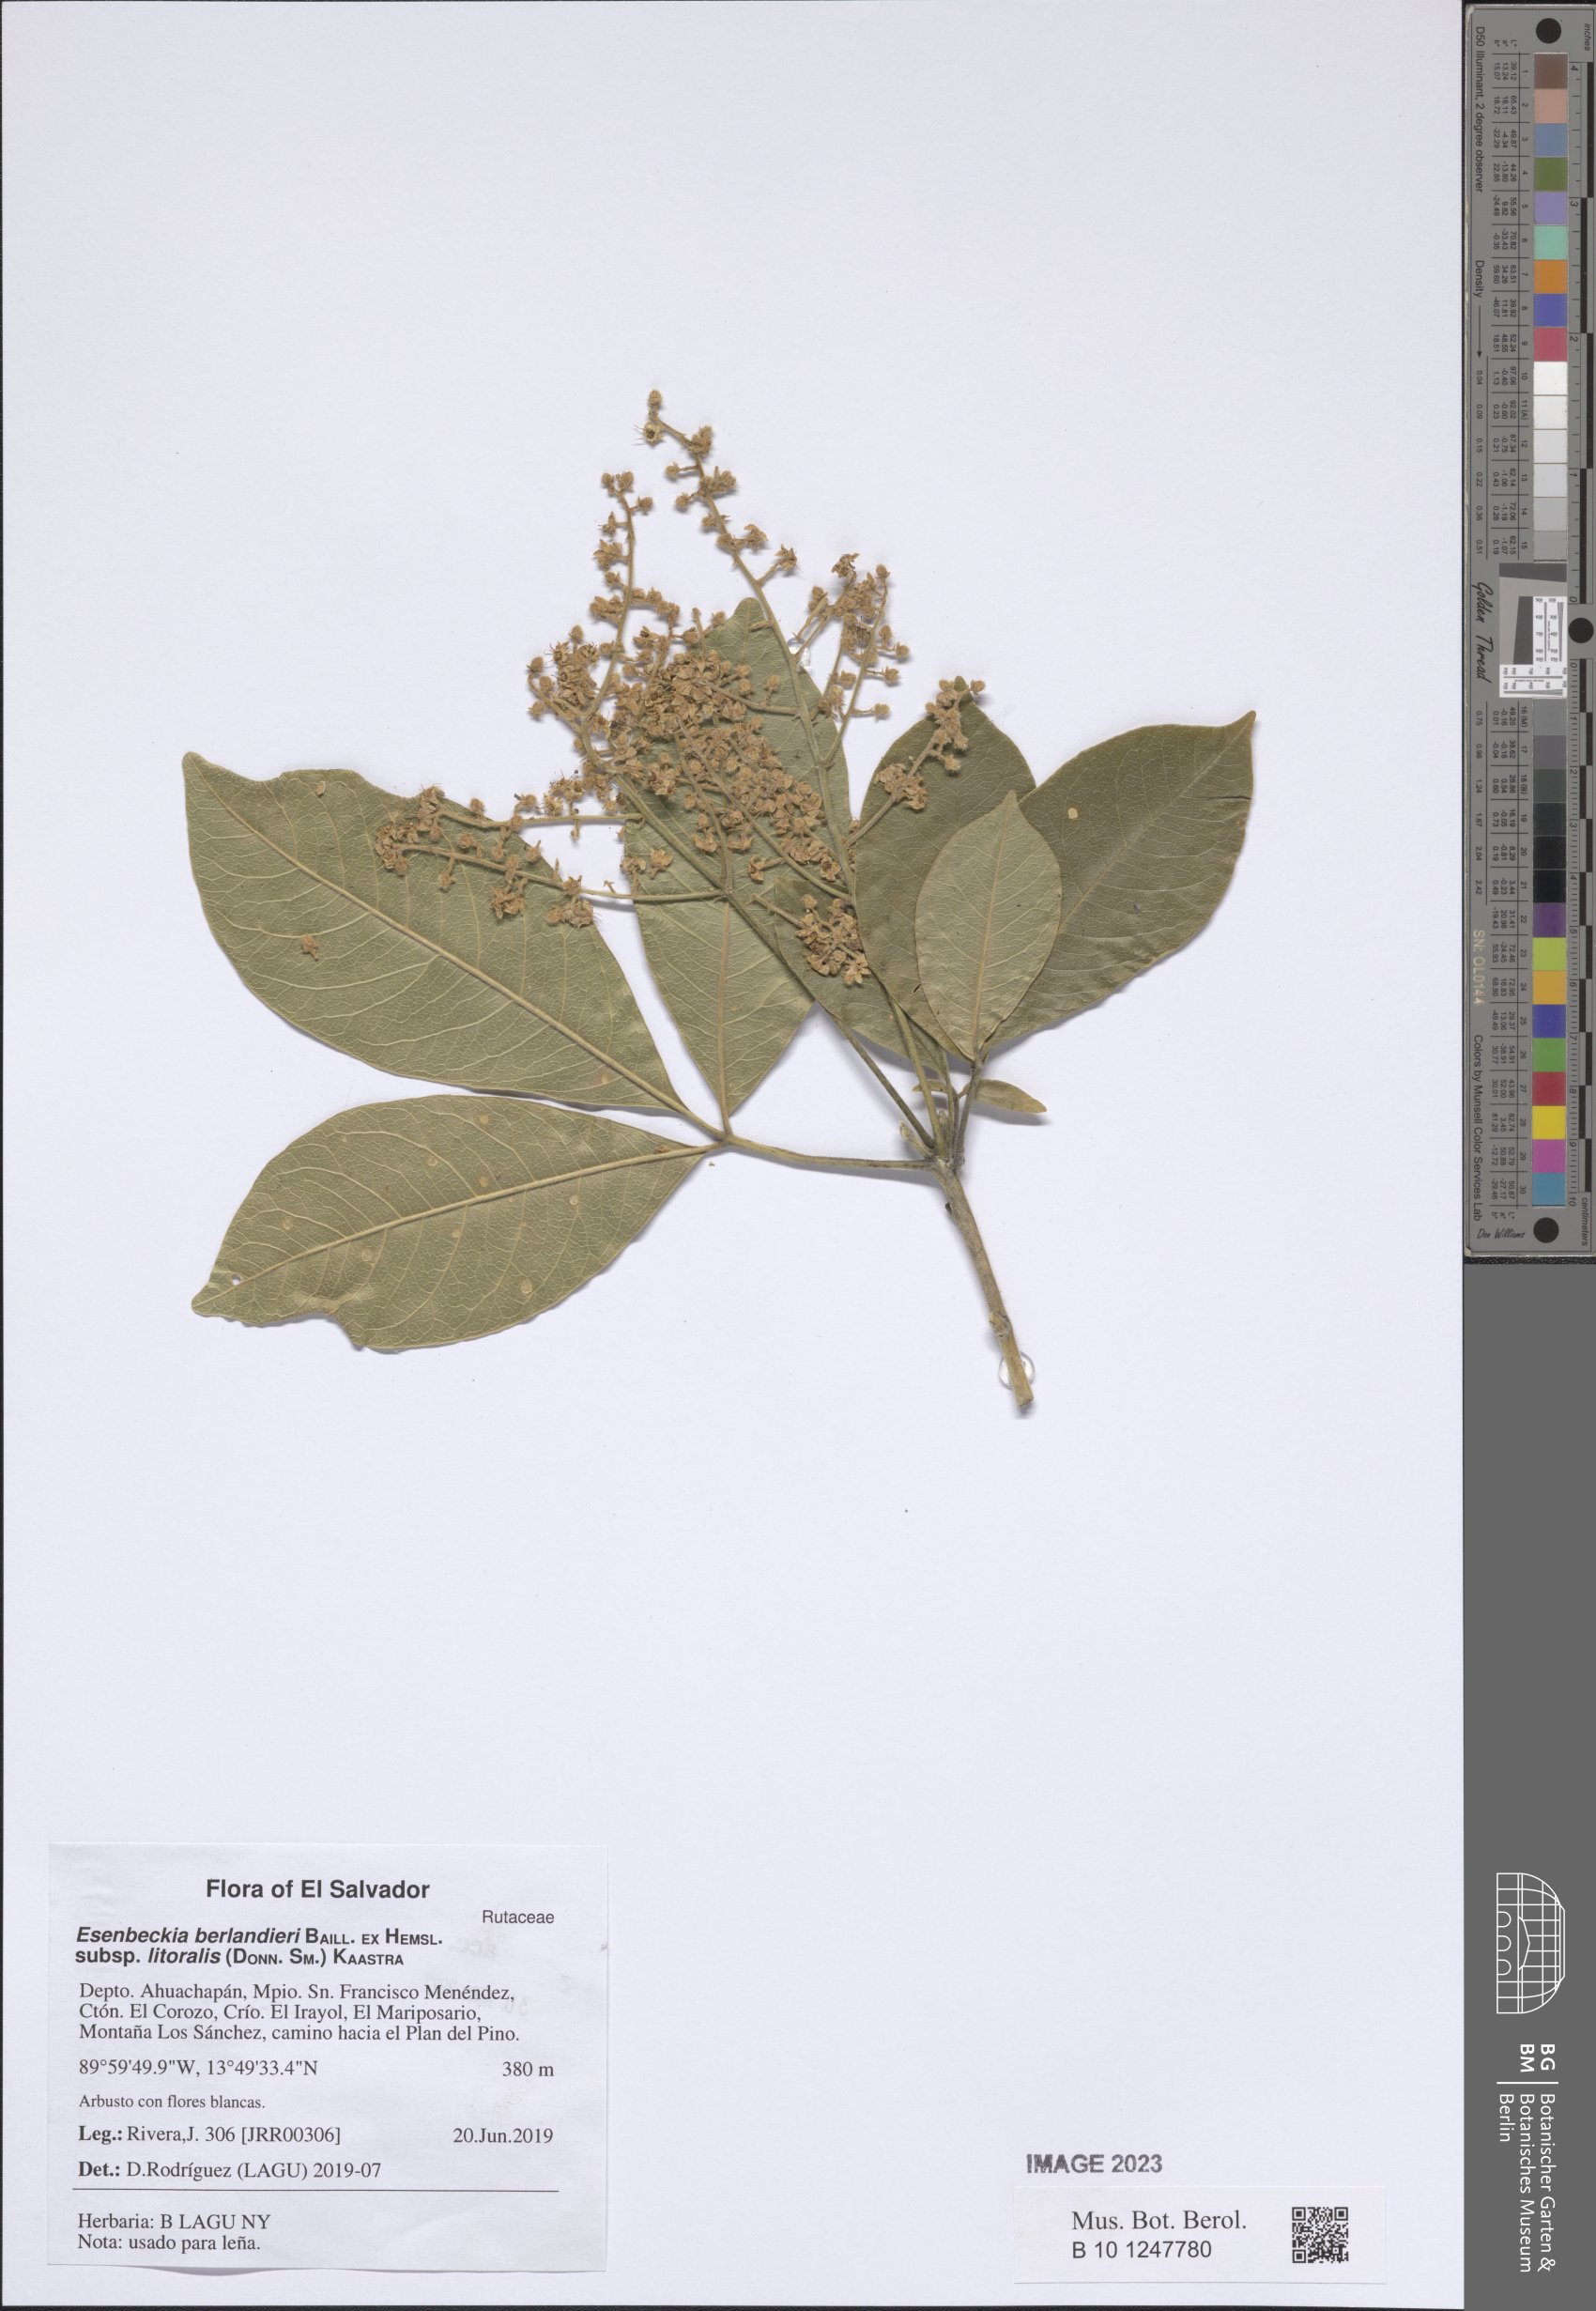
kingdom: Plantae
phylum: Tracheophyta
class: Magnoliopsida
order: Sapindales
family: Rutaceae
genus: Esenbeckia
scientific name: Esenbeckia berlandieri
